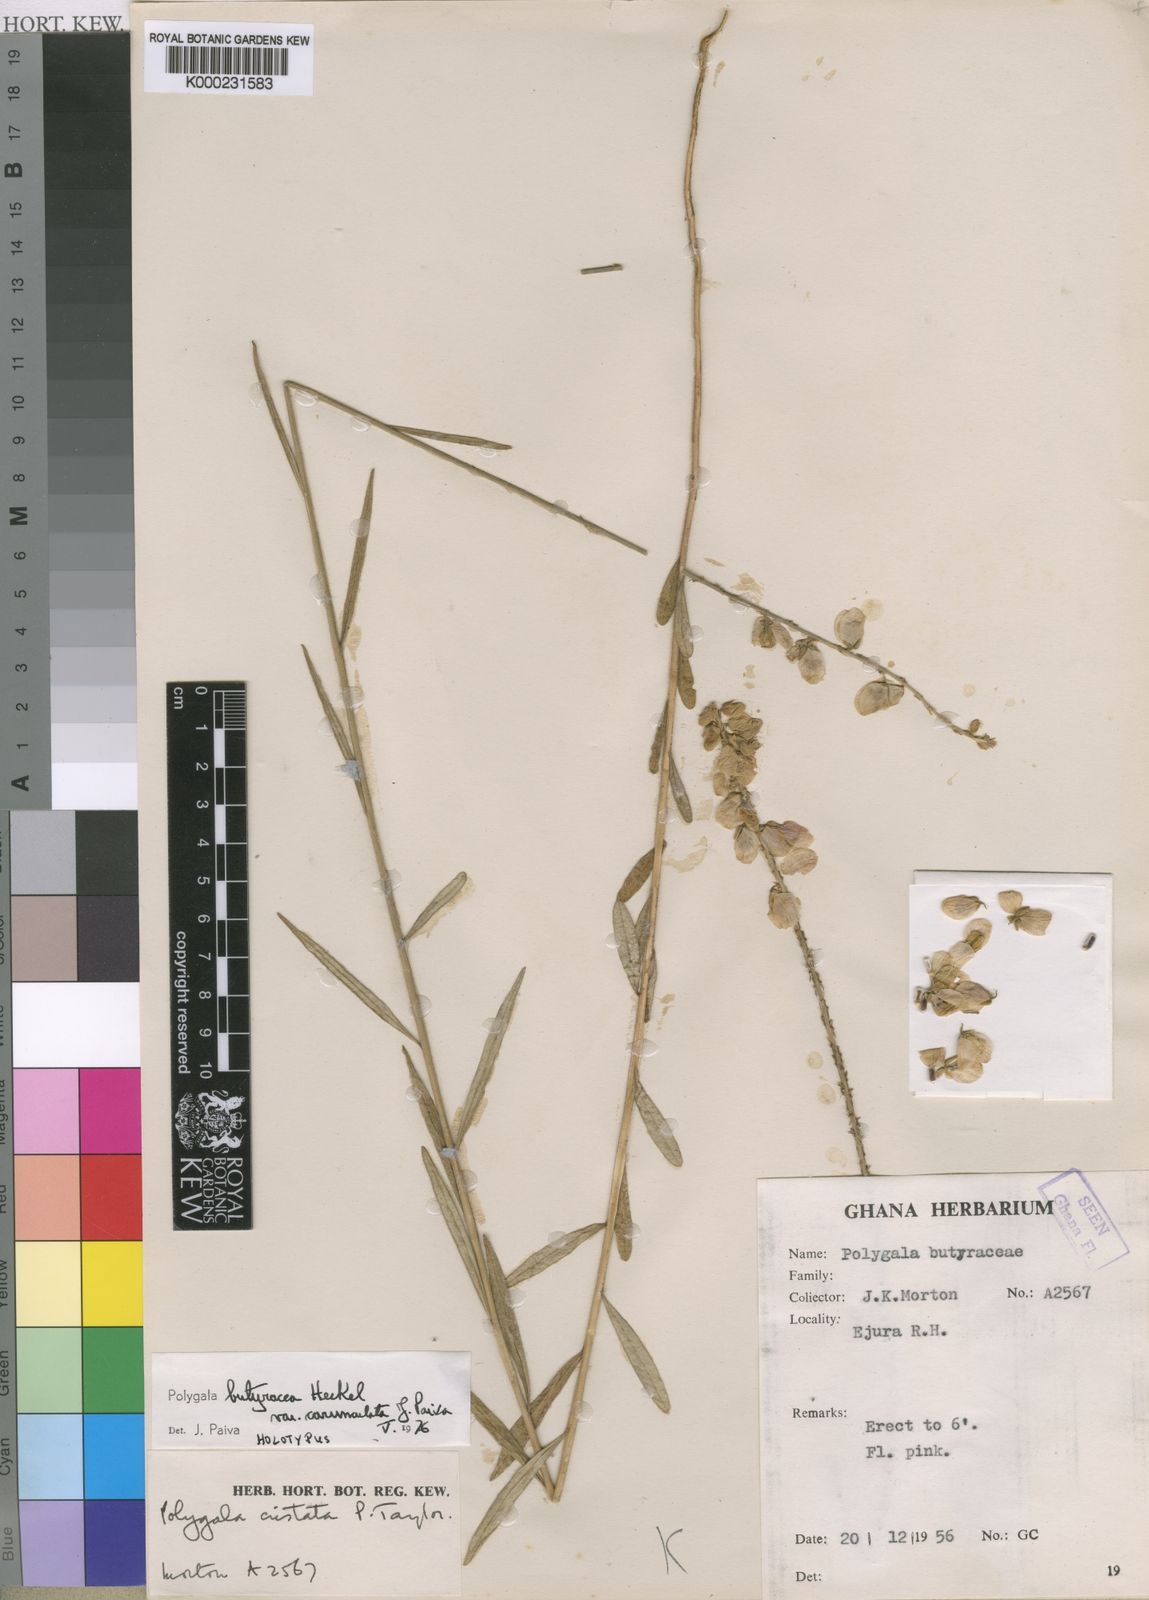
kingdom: Plantae
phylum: Tracheophyta
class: Magnoliopsida
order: Fabales
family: Polygalaceae
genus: Polygala
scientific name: Polygala butyracea
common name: Black beniseed
